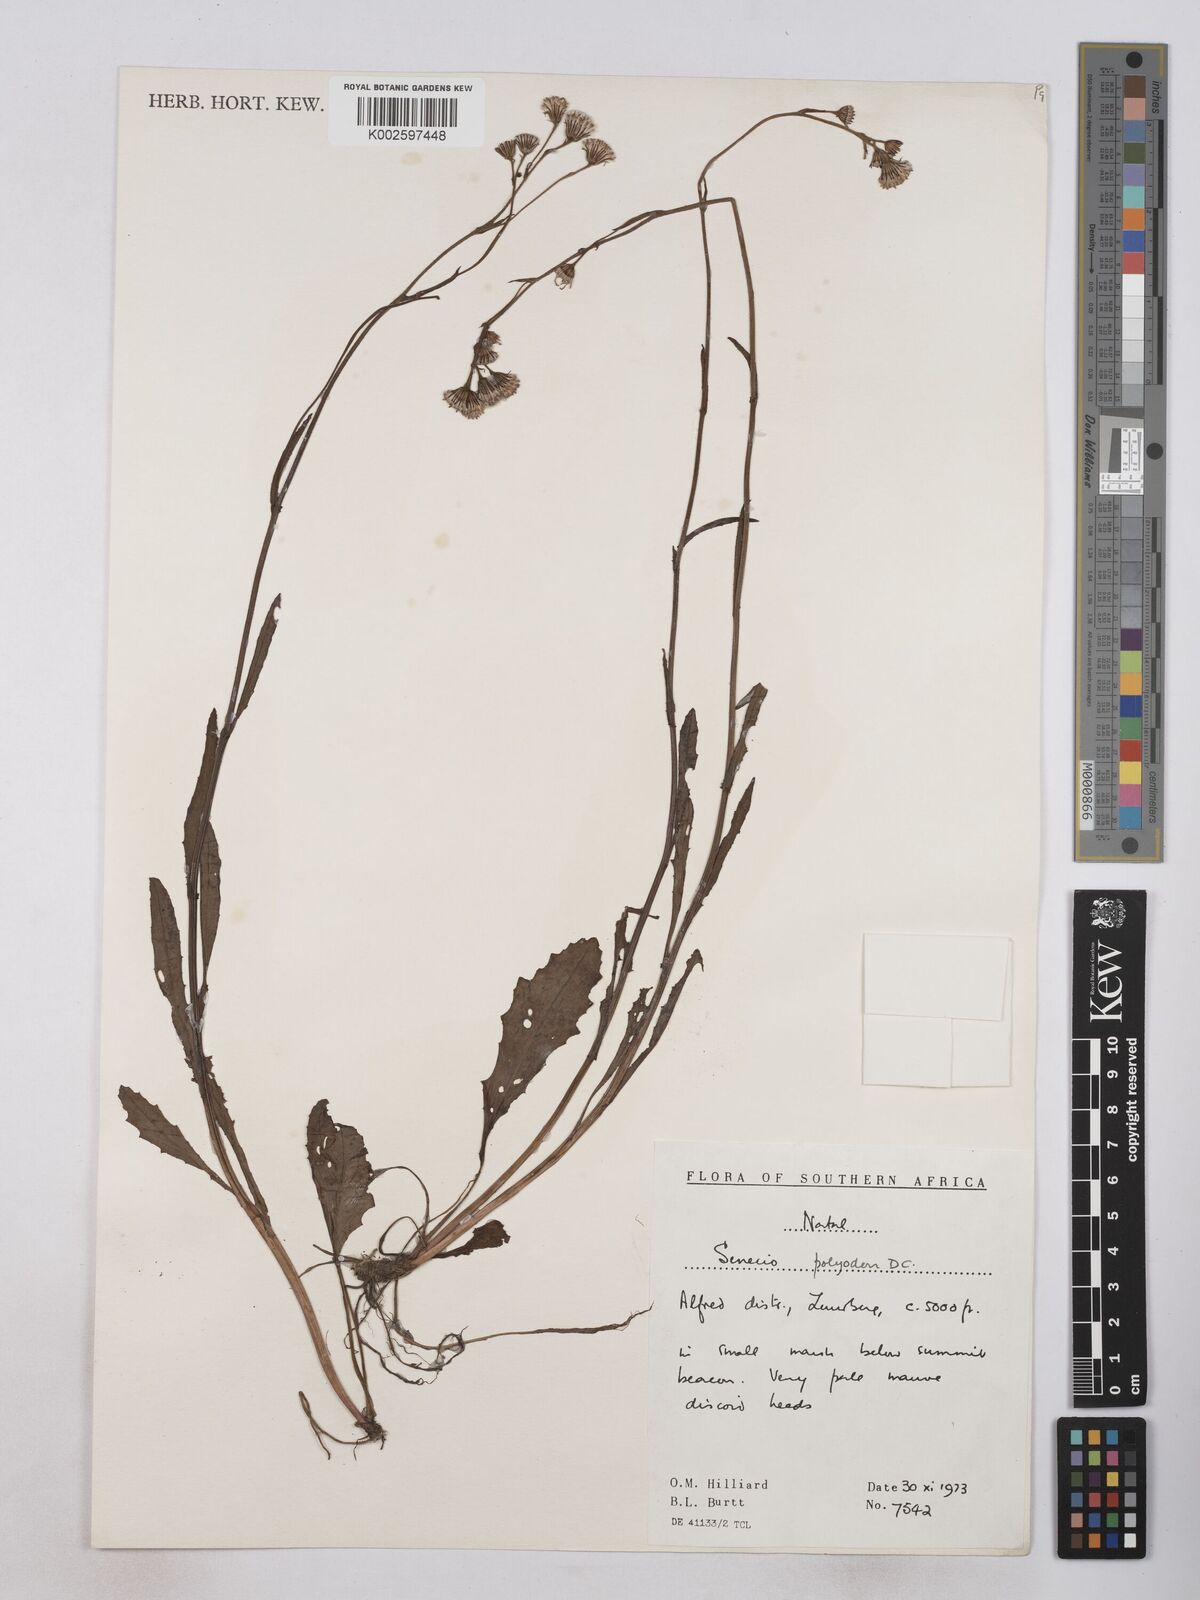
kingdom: Plantae
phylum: Tracheophyta
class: Magnoliopsida
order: Asterales
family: Asteraceae
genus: Senecio
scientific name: Senecio polyodon
